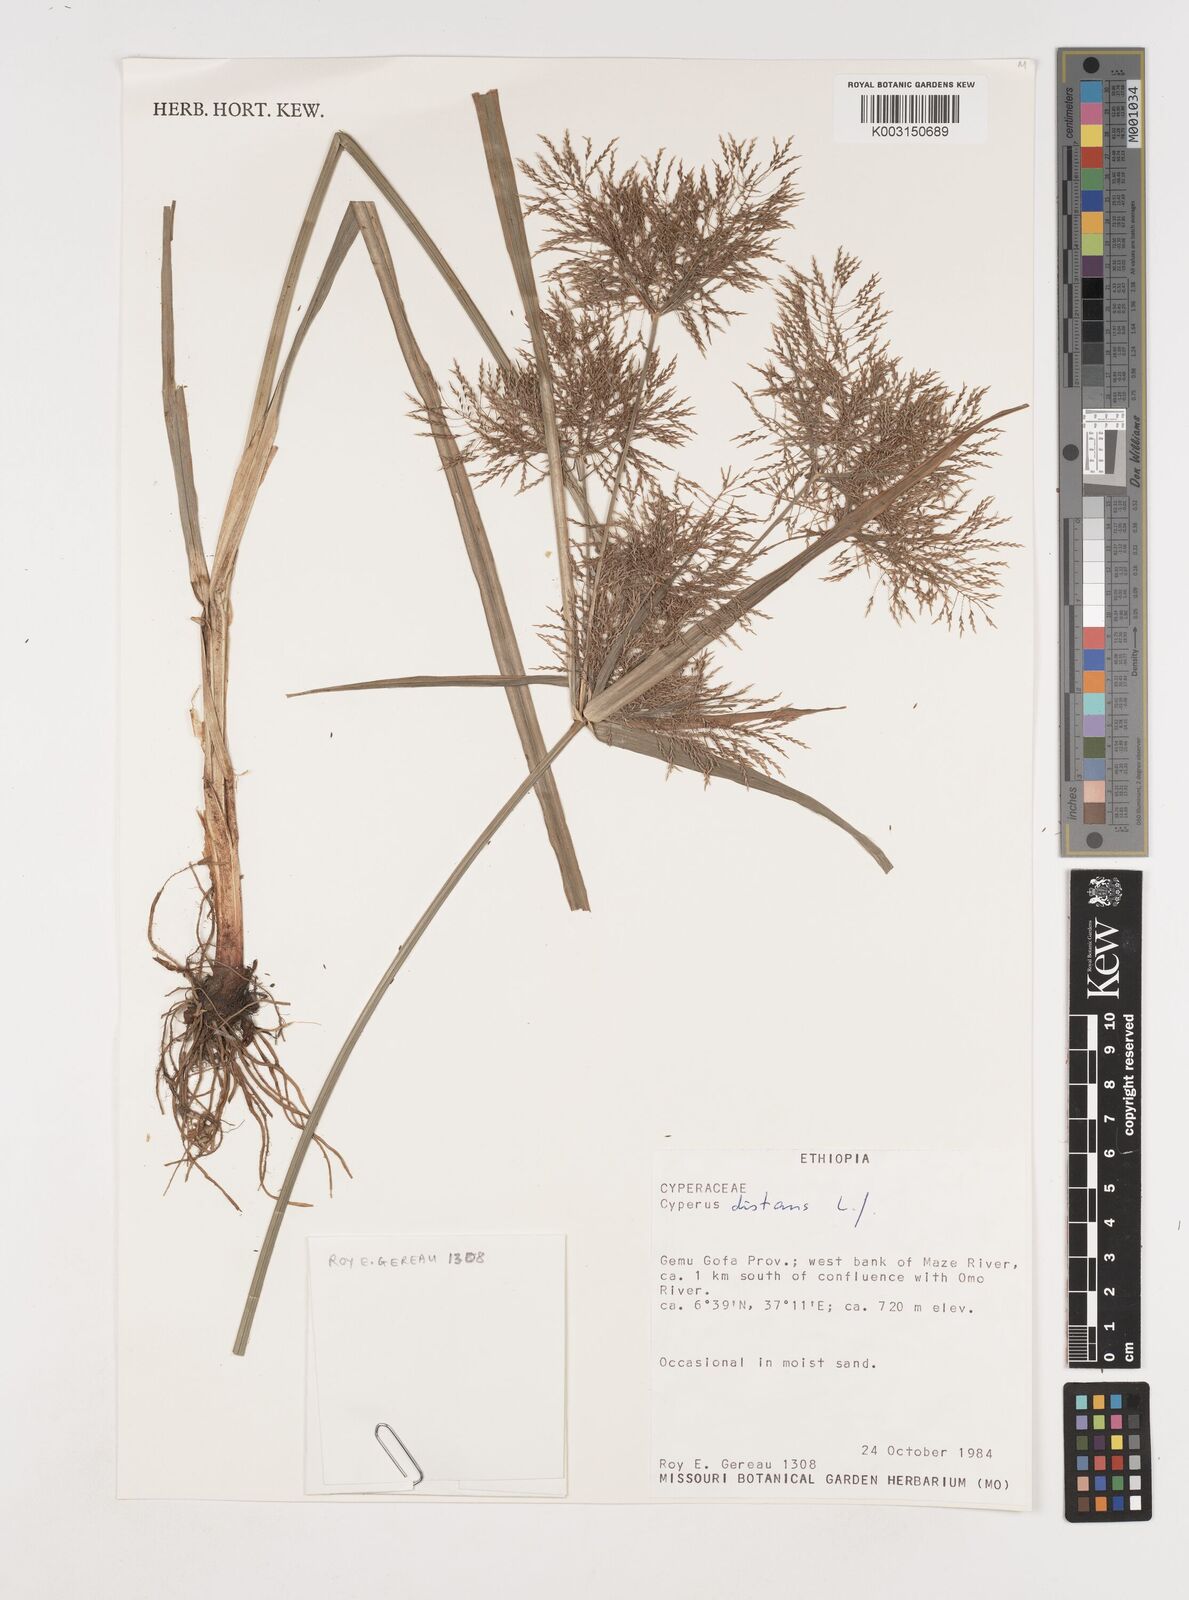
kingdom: Plantae
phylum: Tracheophyta
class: Liliopsida
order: Poales
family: Cyperaceae
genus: Cyperus
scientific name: Cyperus distans
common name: Slender cyperus
